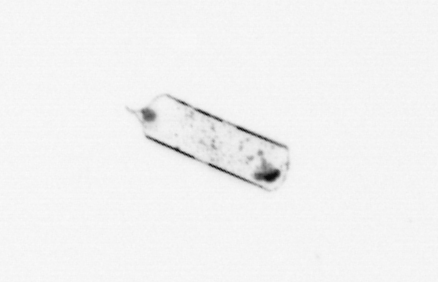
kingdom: Chromista
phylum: Ochrophyta
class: Bacillariophyceae
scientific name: Bacillariophyceae
